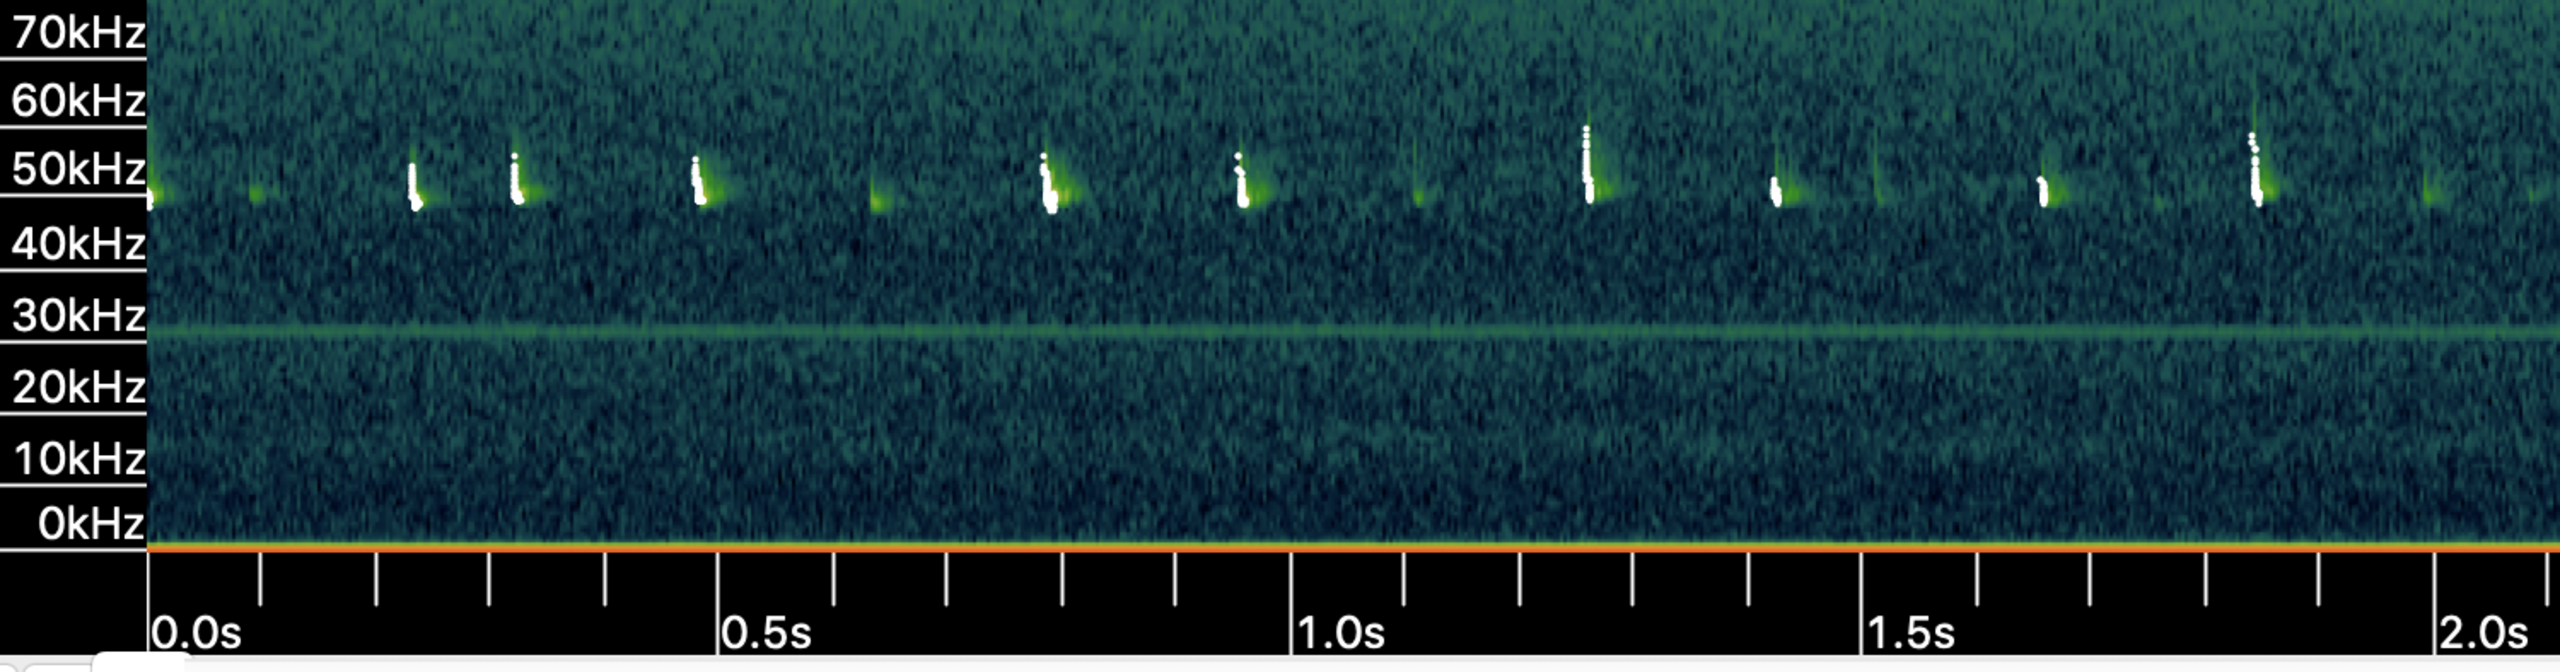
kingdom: Animalia
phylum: Chordata
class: Mammalia
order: Chiroptera
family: Vespertilionidae
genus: Pipistrellus
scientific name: Pipistrellus pygmaeus
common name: Dværgflagermus
